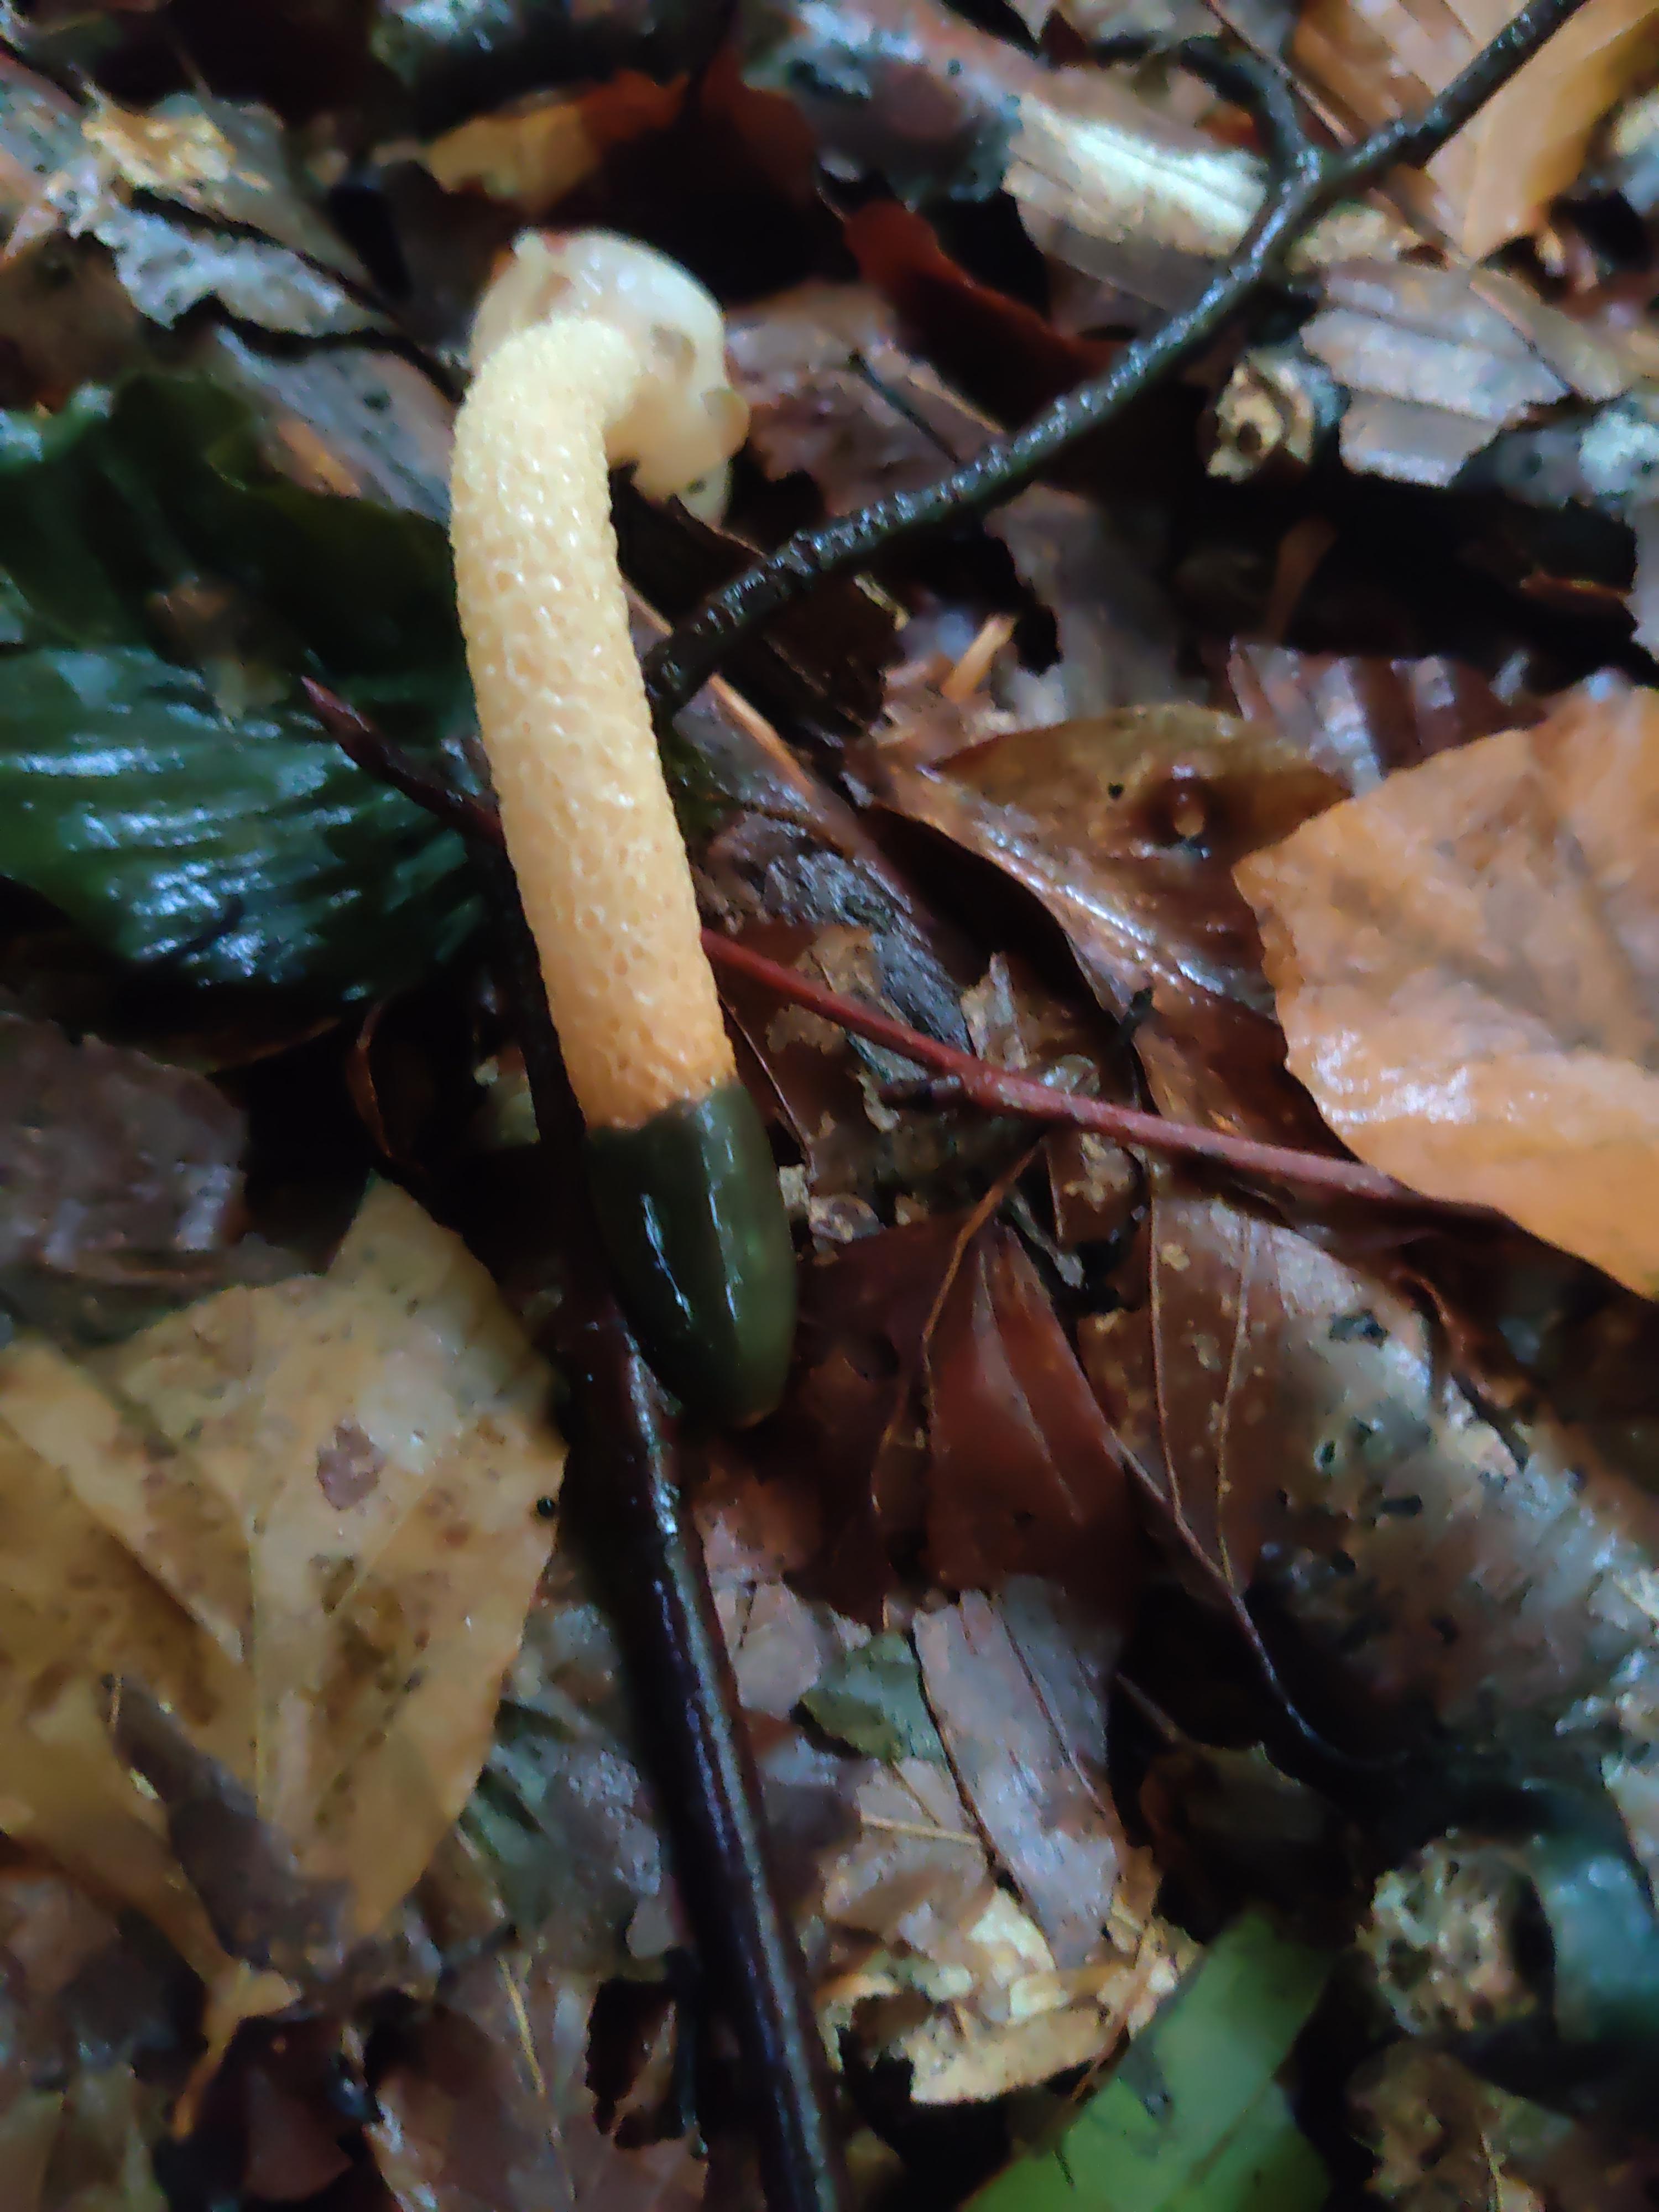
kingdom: Fungi
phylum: Basidiomycota
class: Agaricomycetes
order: Phallales
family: Phallaceae
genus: Mutinus
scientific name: Mutinus caninus
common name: hunde-stinksvamp
